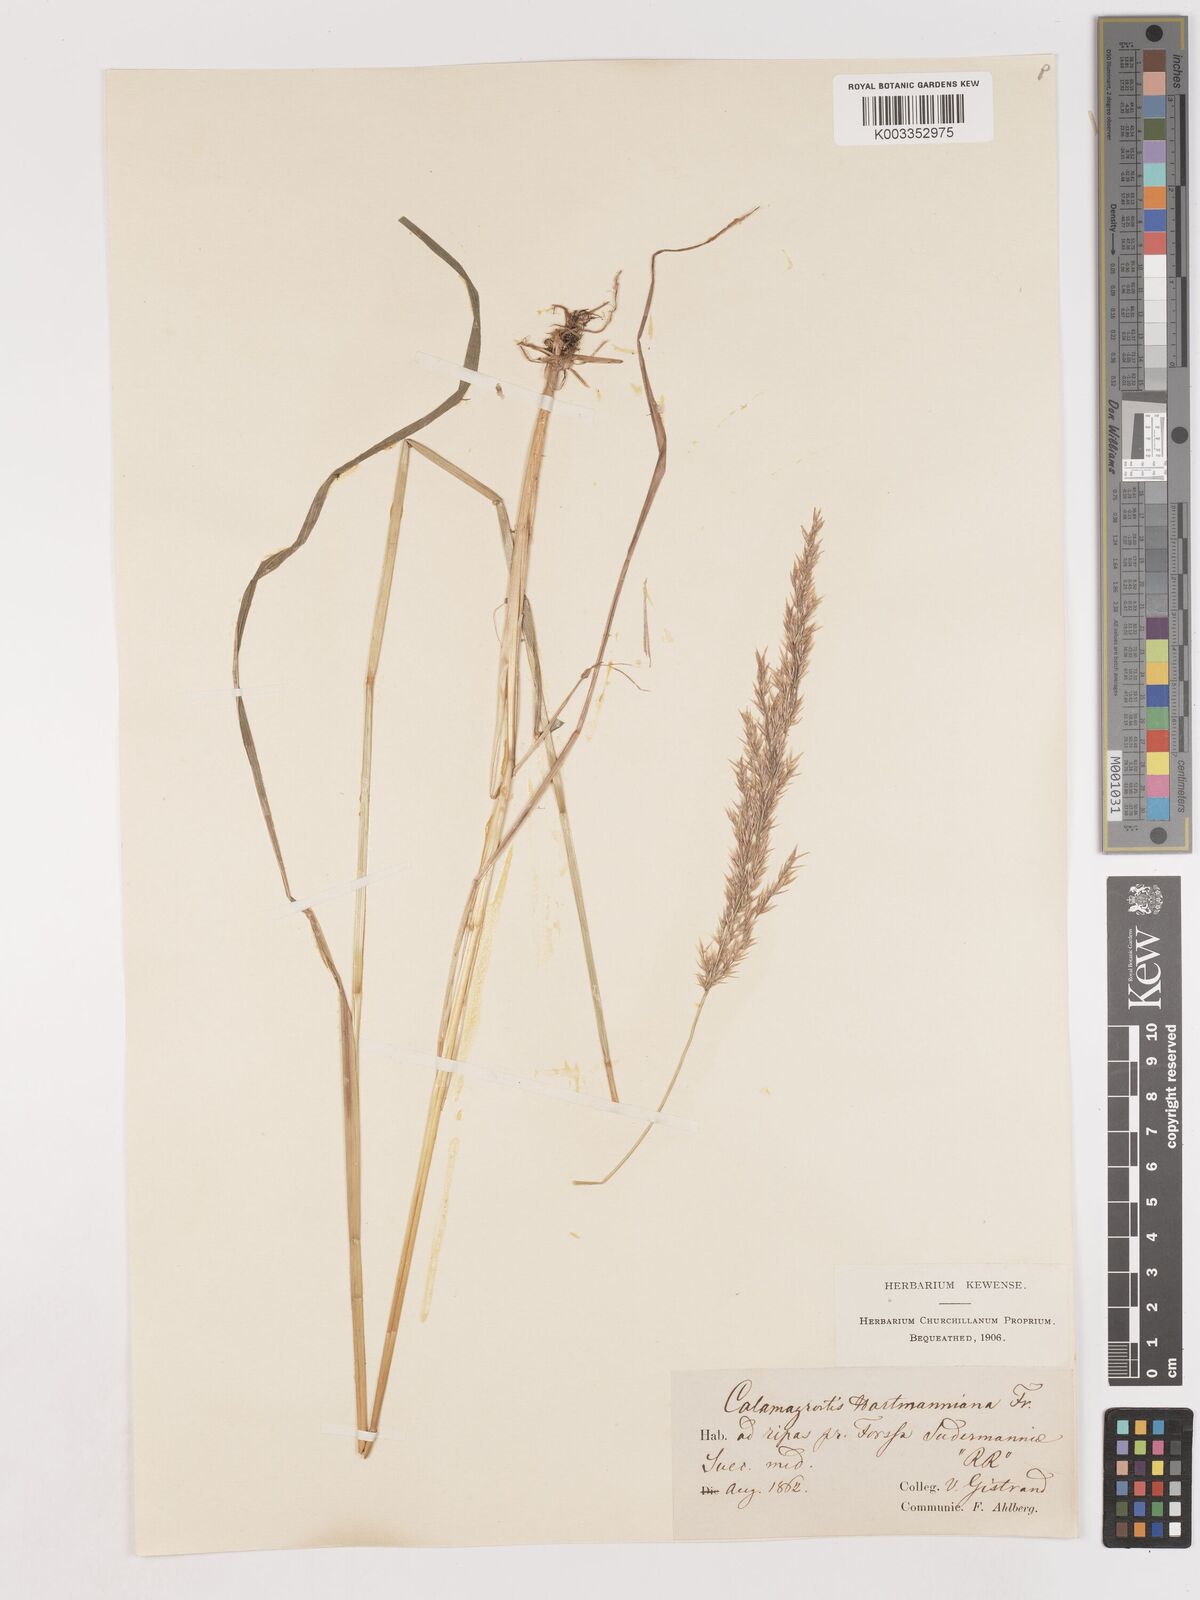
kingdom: Plantae
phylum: Tracheophyta
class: Liliopsida
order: Poales
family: Poaceae
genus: Calamagrostis
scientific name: Calamagrostis canescens
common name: Purple small-reed
